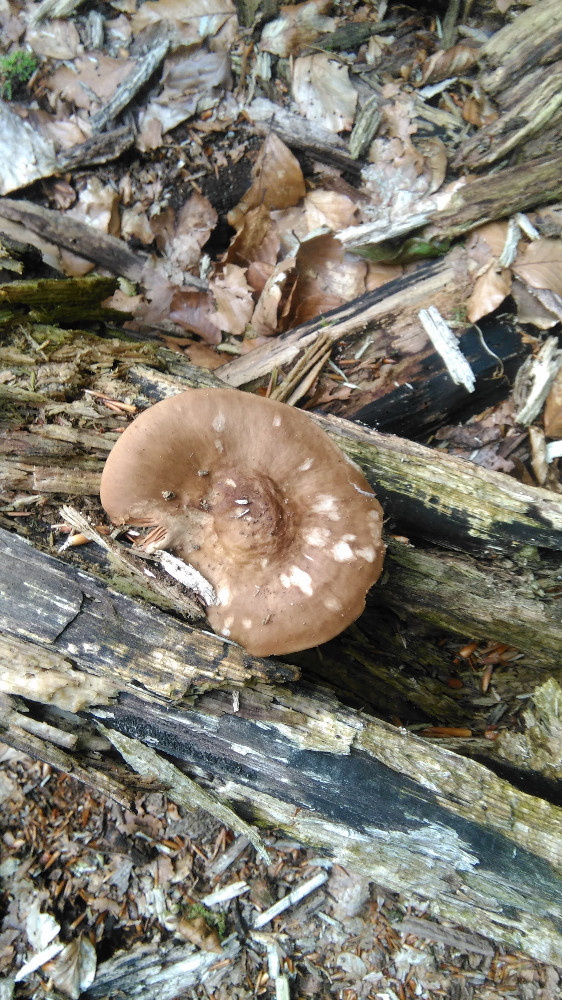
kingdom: Fungi
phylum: Basidiomycota
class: Agaricomycetes
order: Agaricales
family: Pluteaceae
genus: Pluteus
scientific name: Pluteus cervinus
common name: sodfarvet skærmhat
